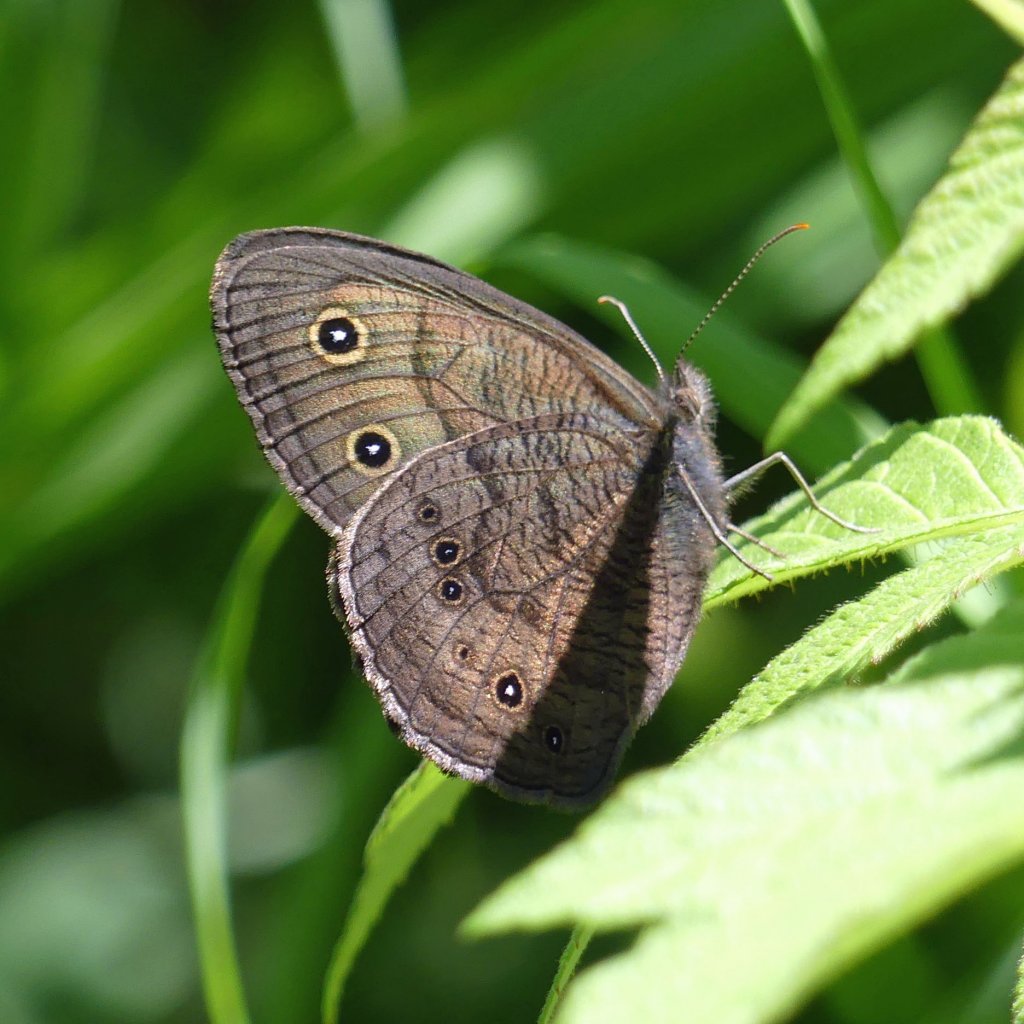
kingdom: Animalia
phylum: Arthropoda
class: Insecta
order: Lepidoptera
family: Nymphalidae
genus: Cercyonis
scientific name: Cercyonis pegala
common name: Common Wood-Nymph
